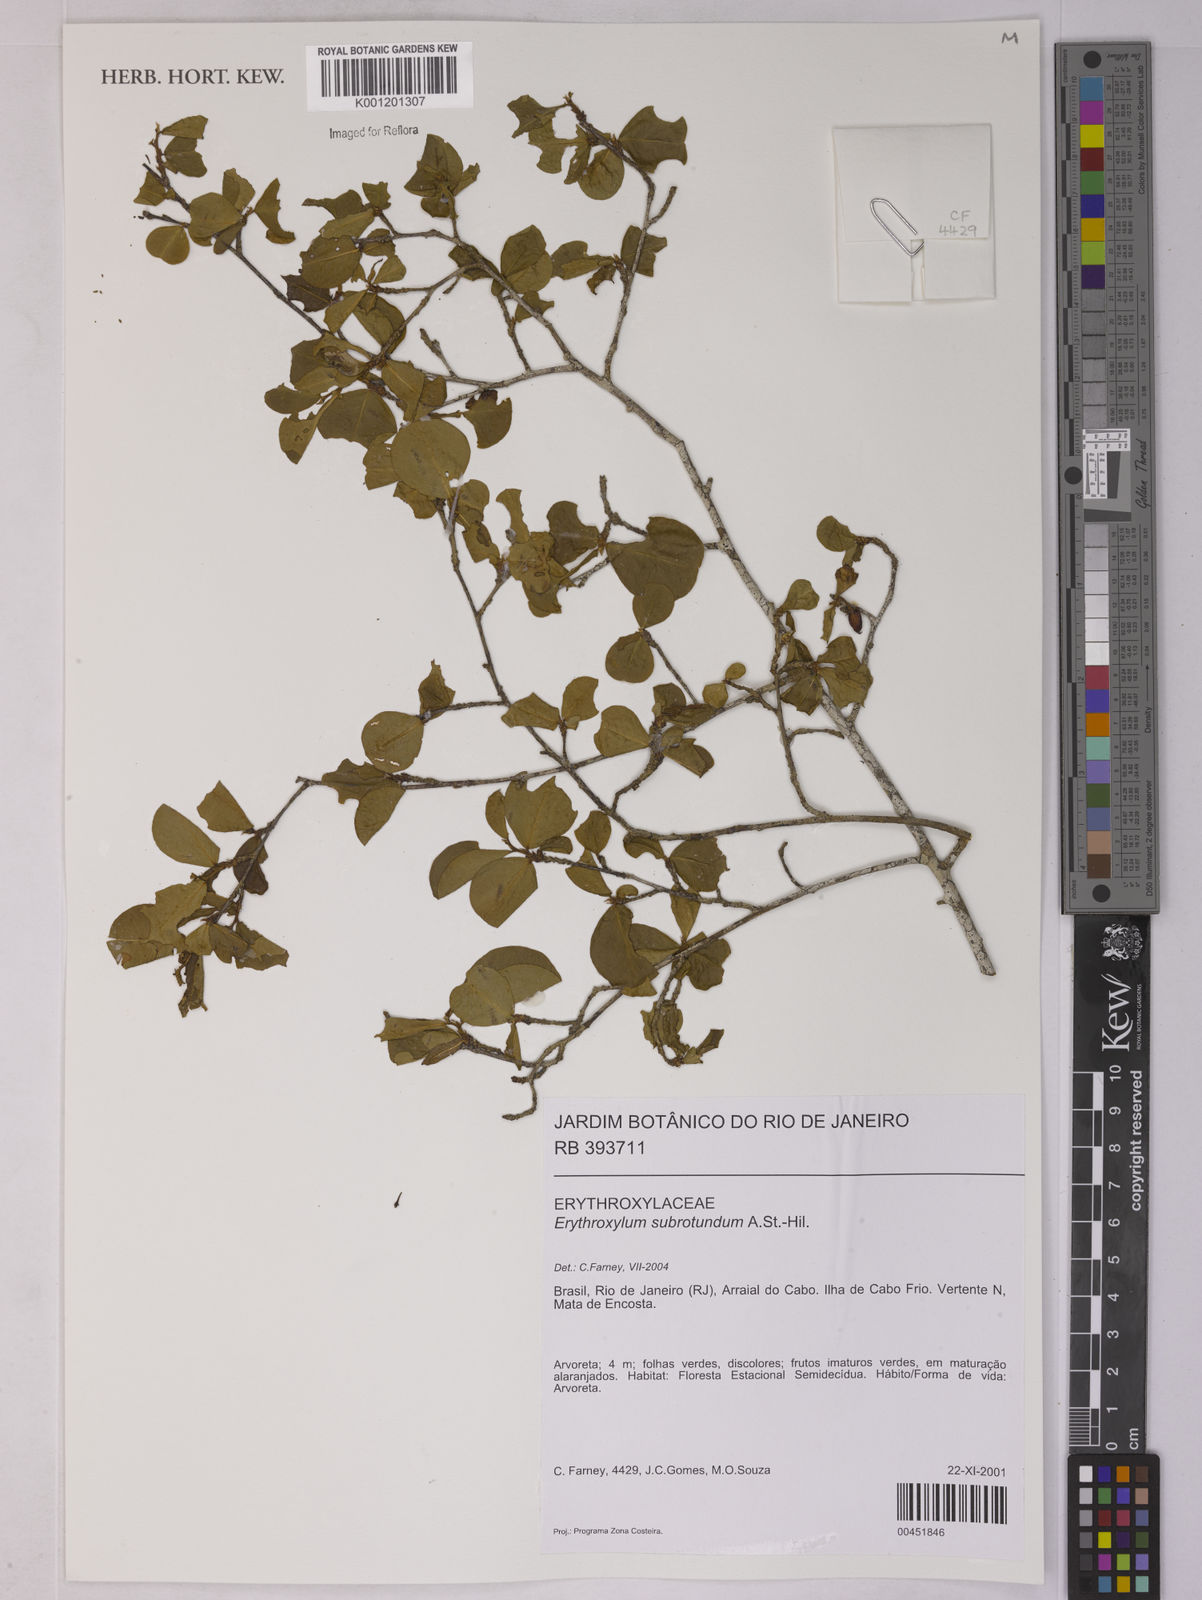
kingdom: Plantae
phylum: Tracheophyta
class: Magnoliopsida
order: Malpighiales
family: Erythroxylaceae
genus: Erythroxylum
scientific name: Erythroxylum subrotundum
